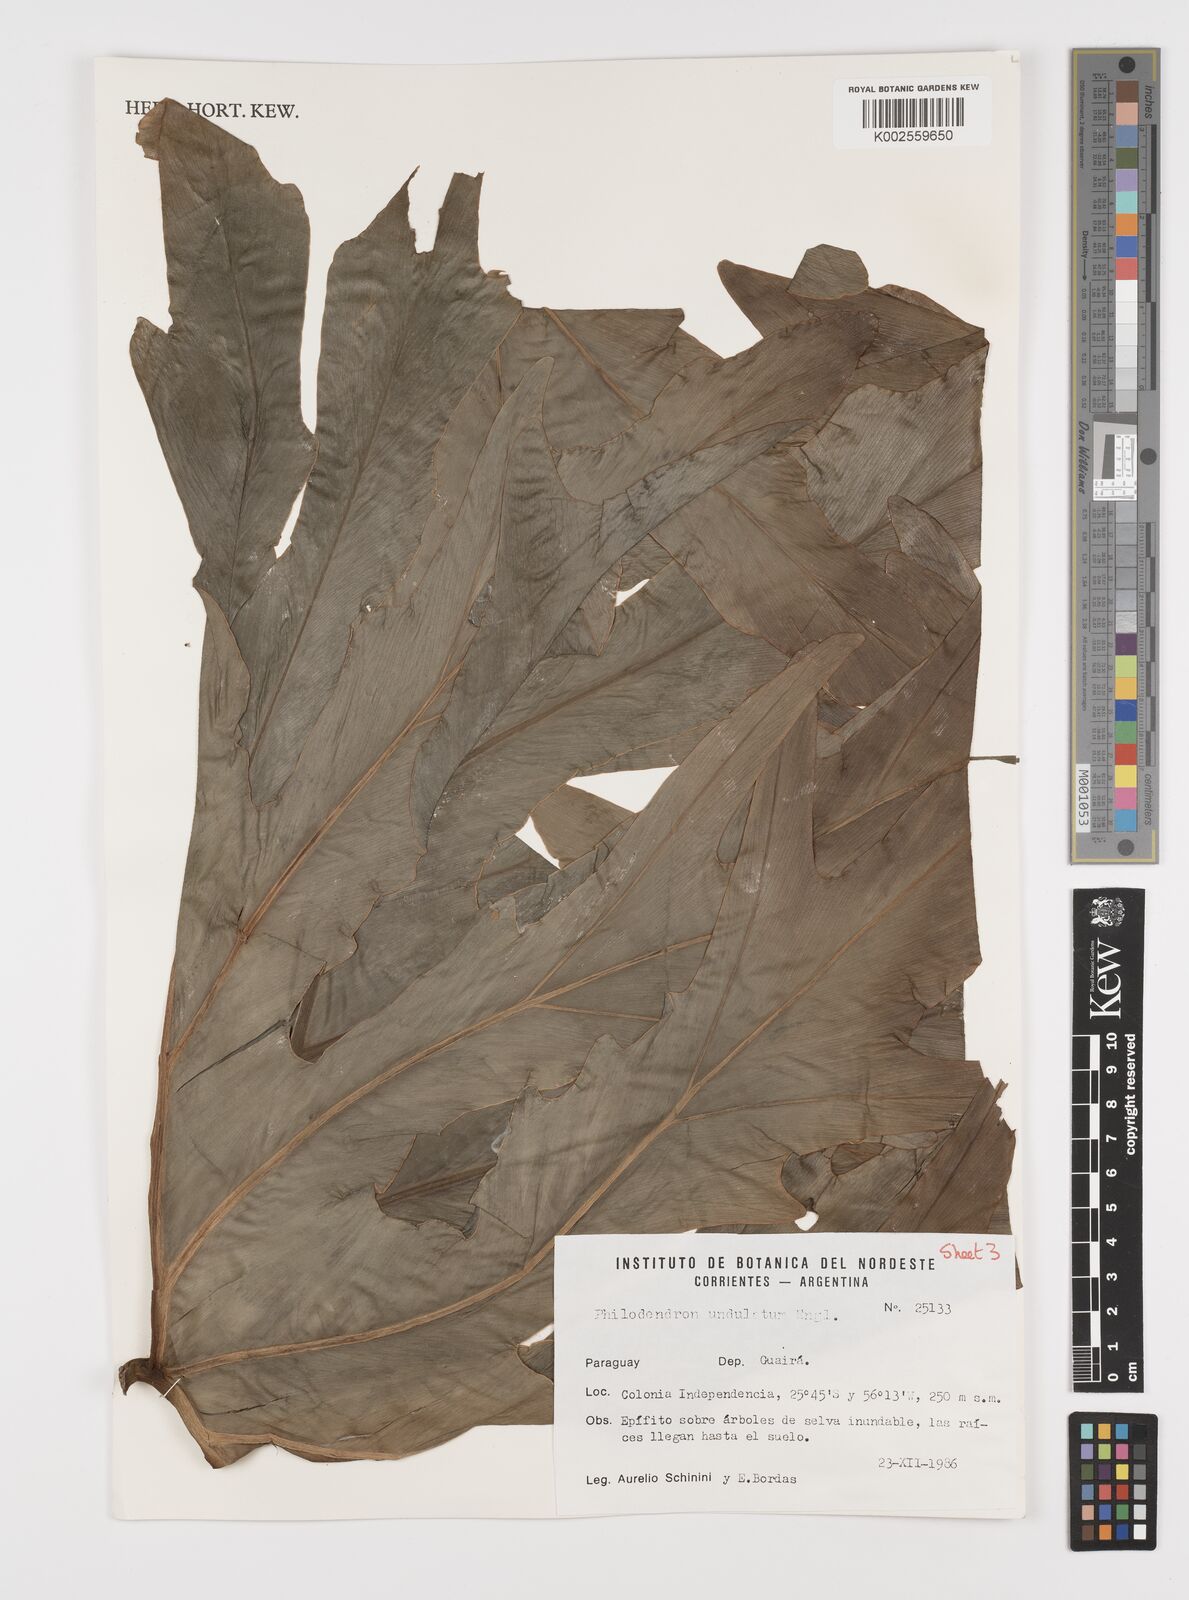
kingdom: Plantae
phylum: Tracheophyta
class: Liliopsida
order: Alismatales
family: Araceae
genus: Thaumatophyllum
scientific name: Thaumatophyllum undulatum
